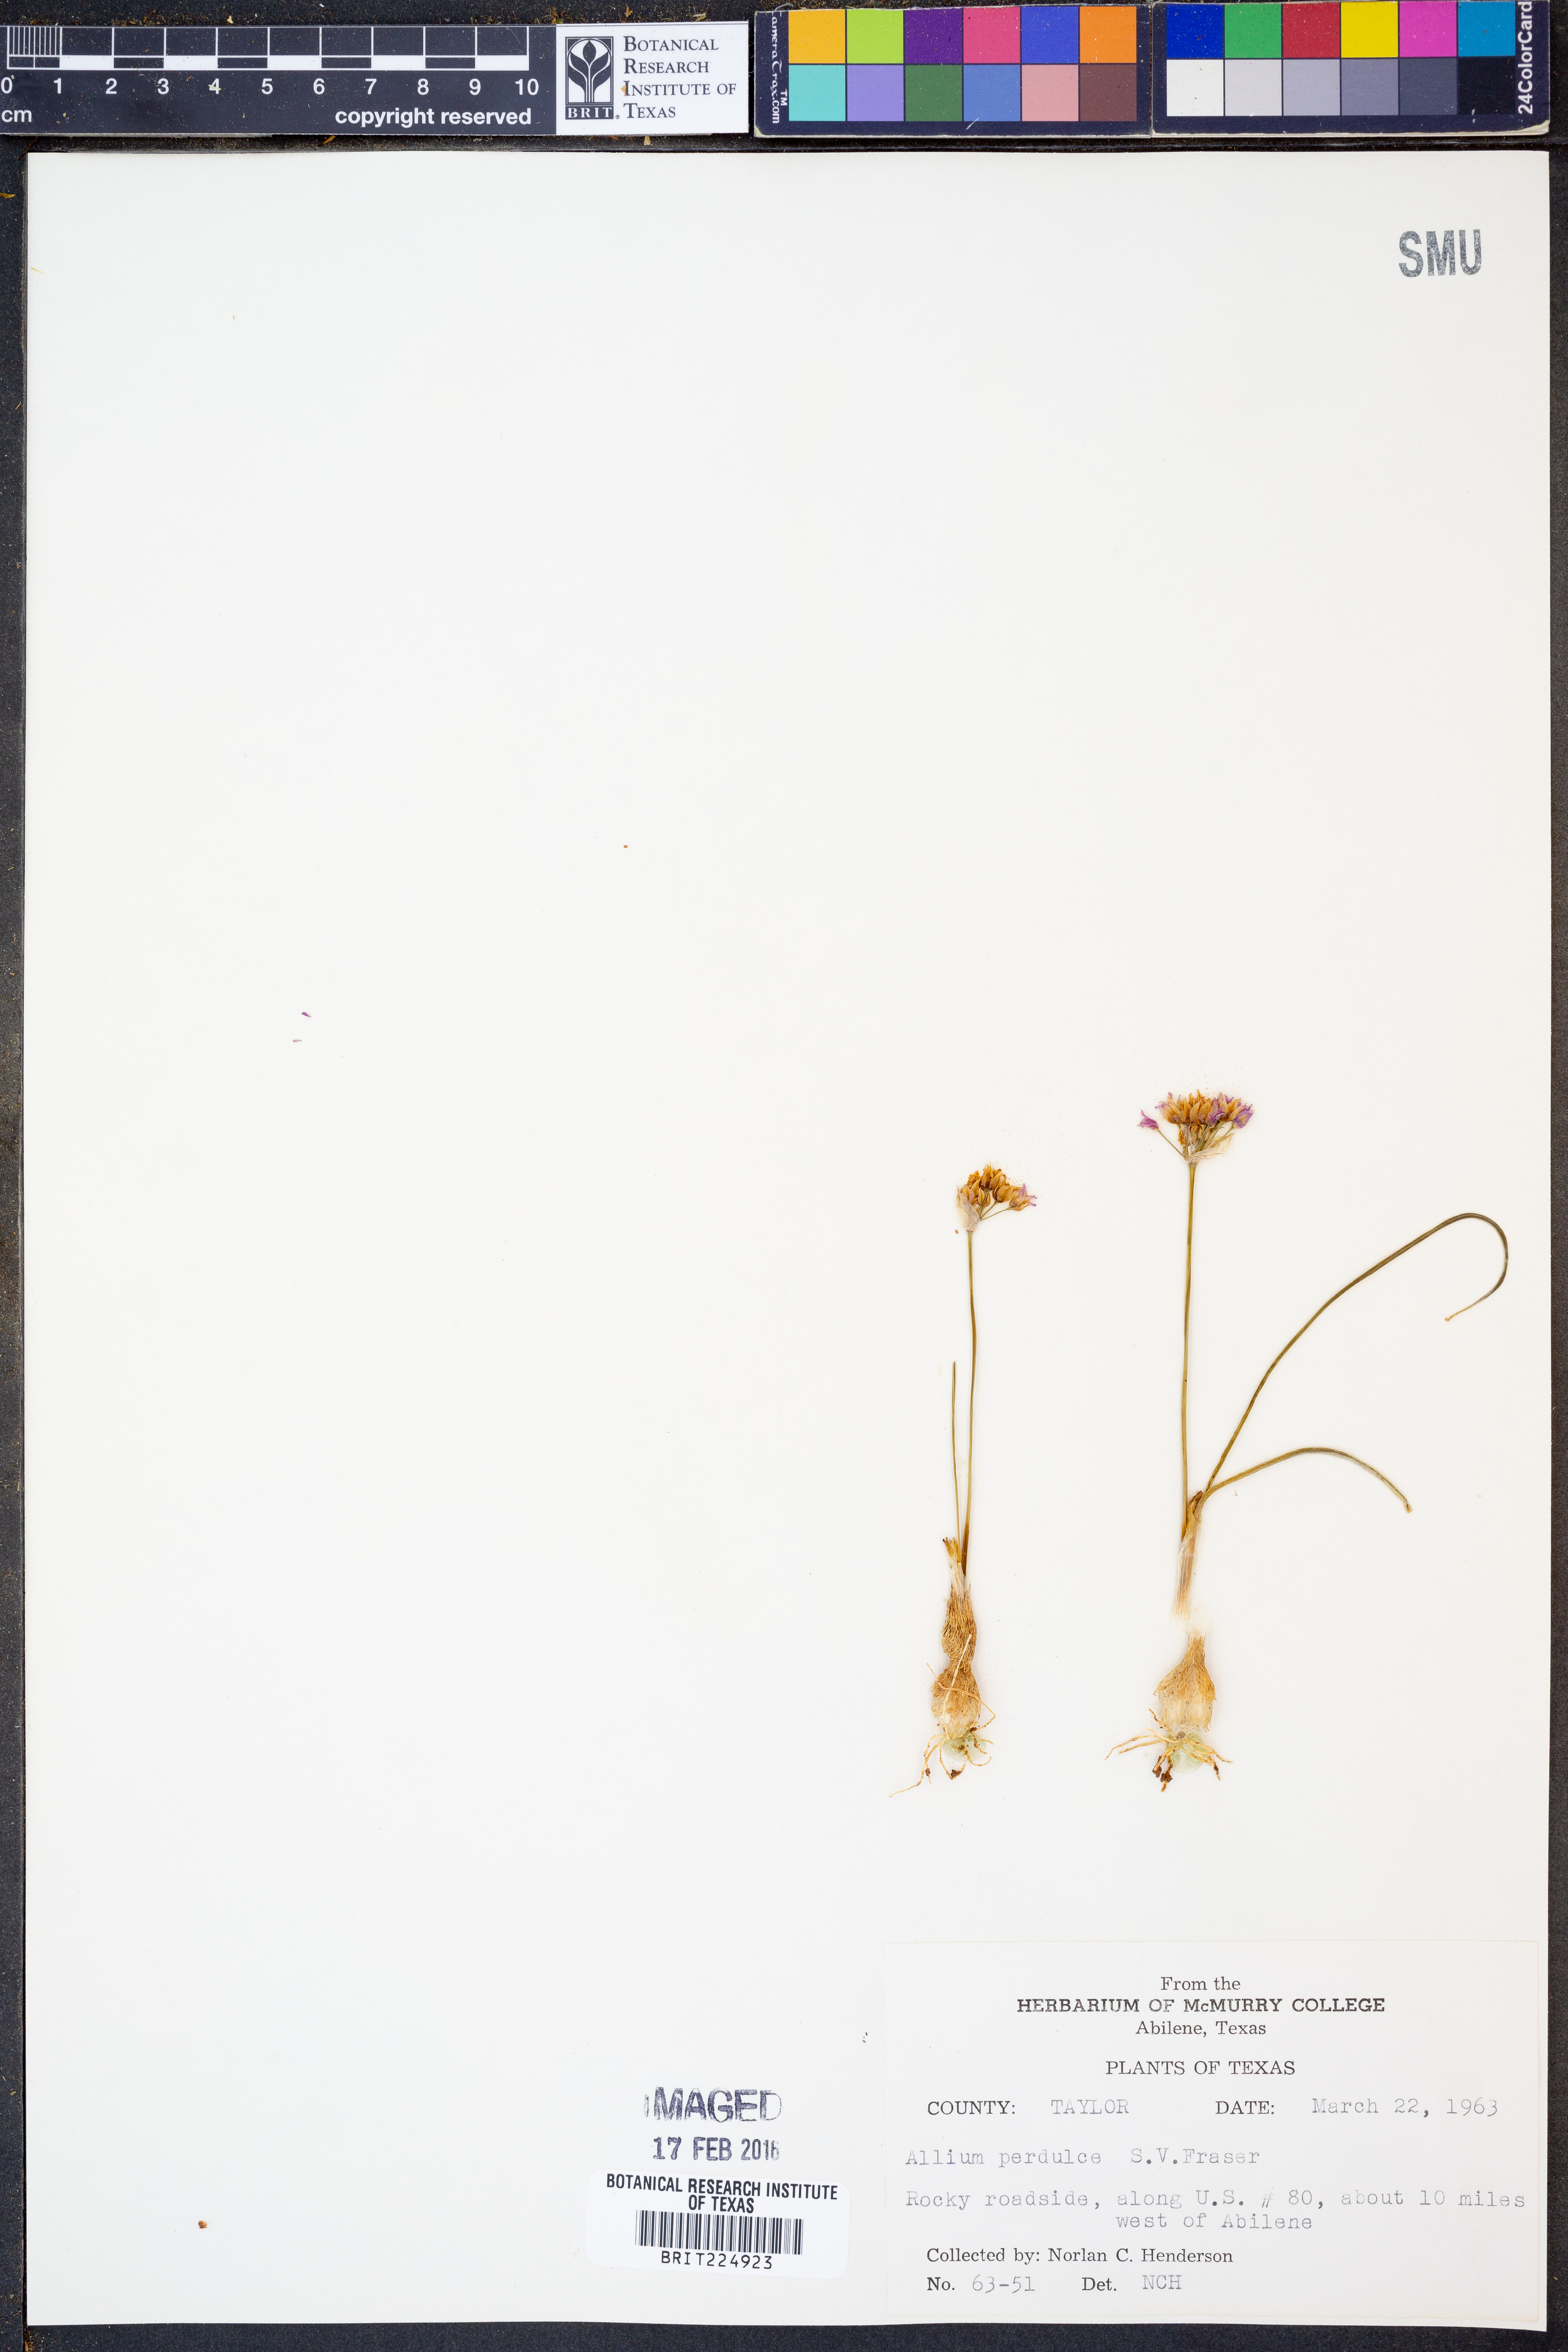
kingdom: Plantae
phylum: Tracheophyta
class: Liliopsida
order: Asparagales
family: Amaryllidaceae
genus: Allium
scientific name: Allium perdulce
